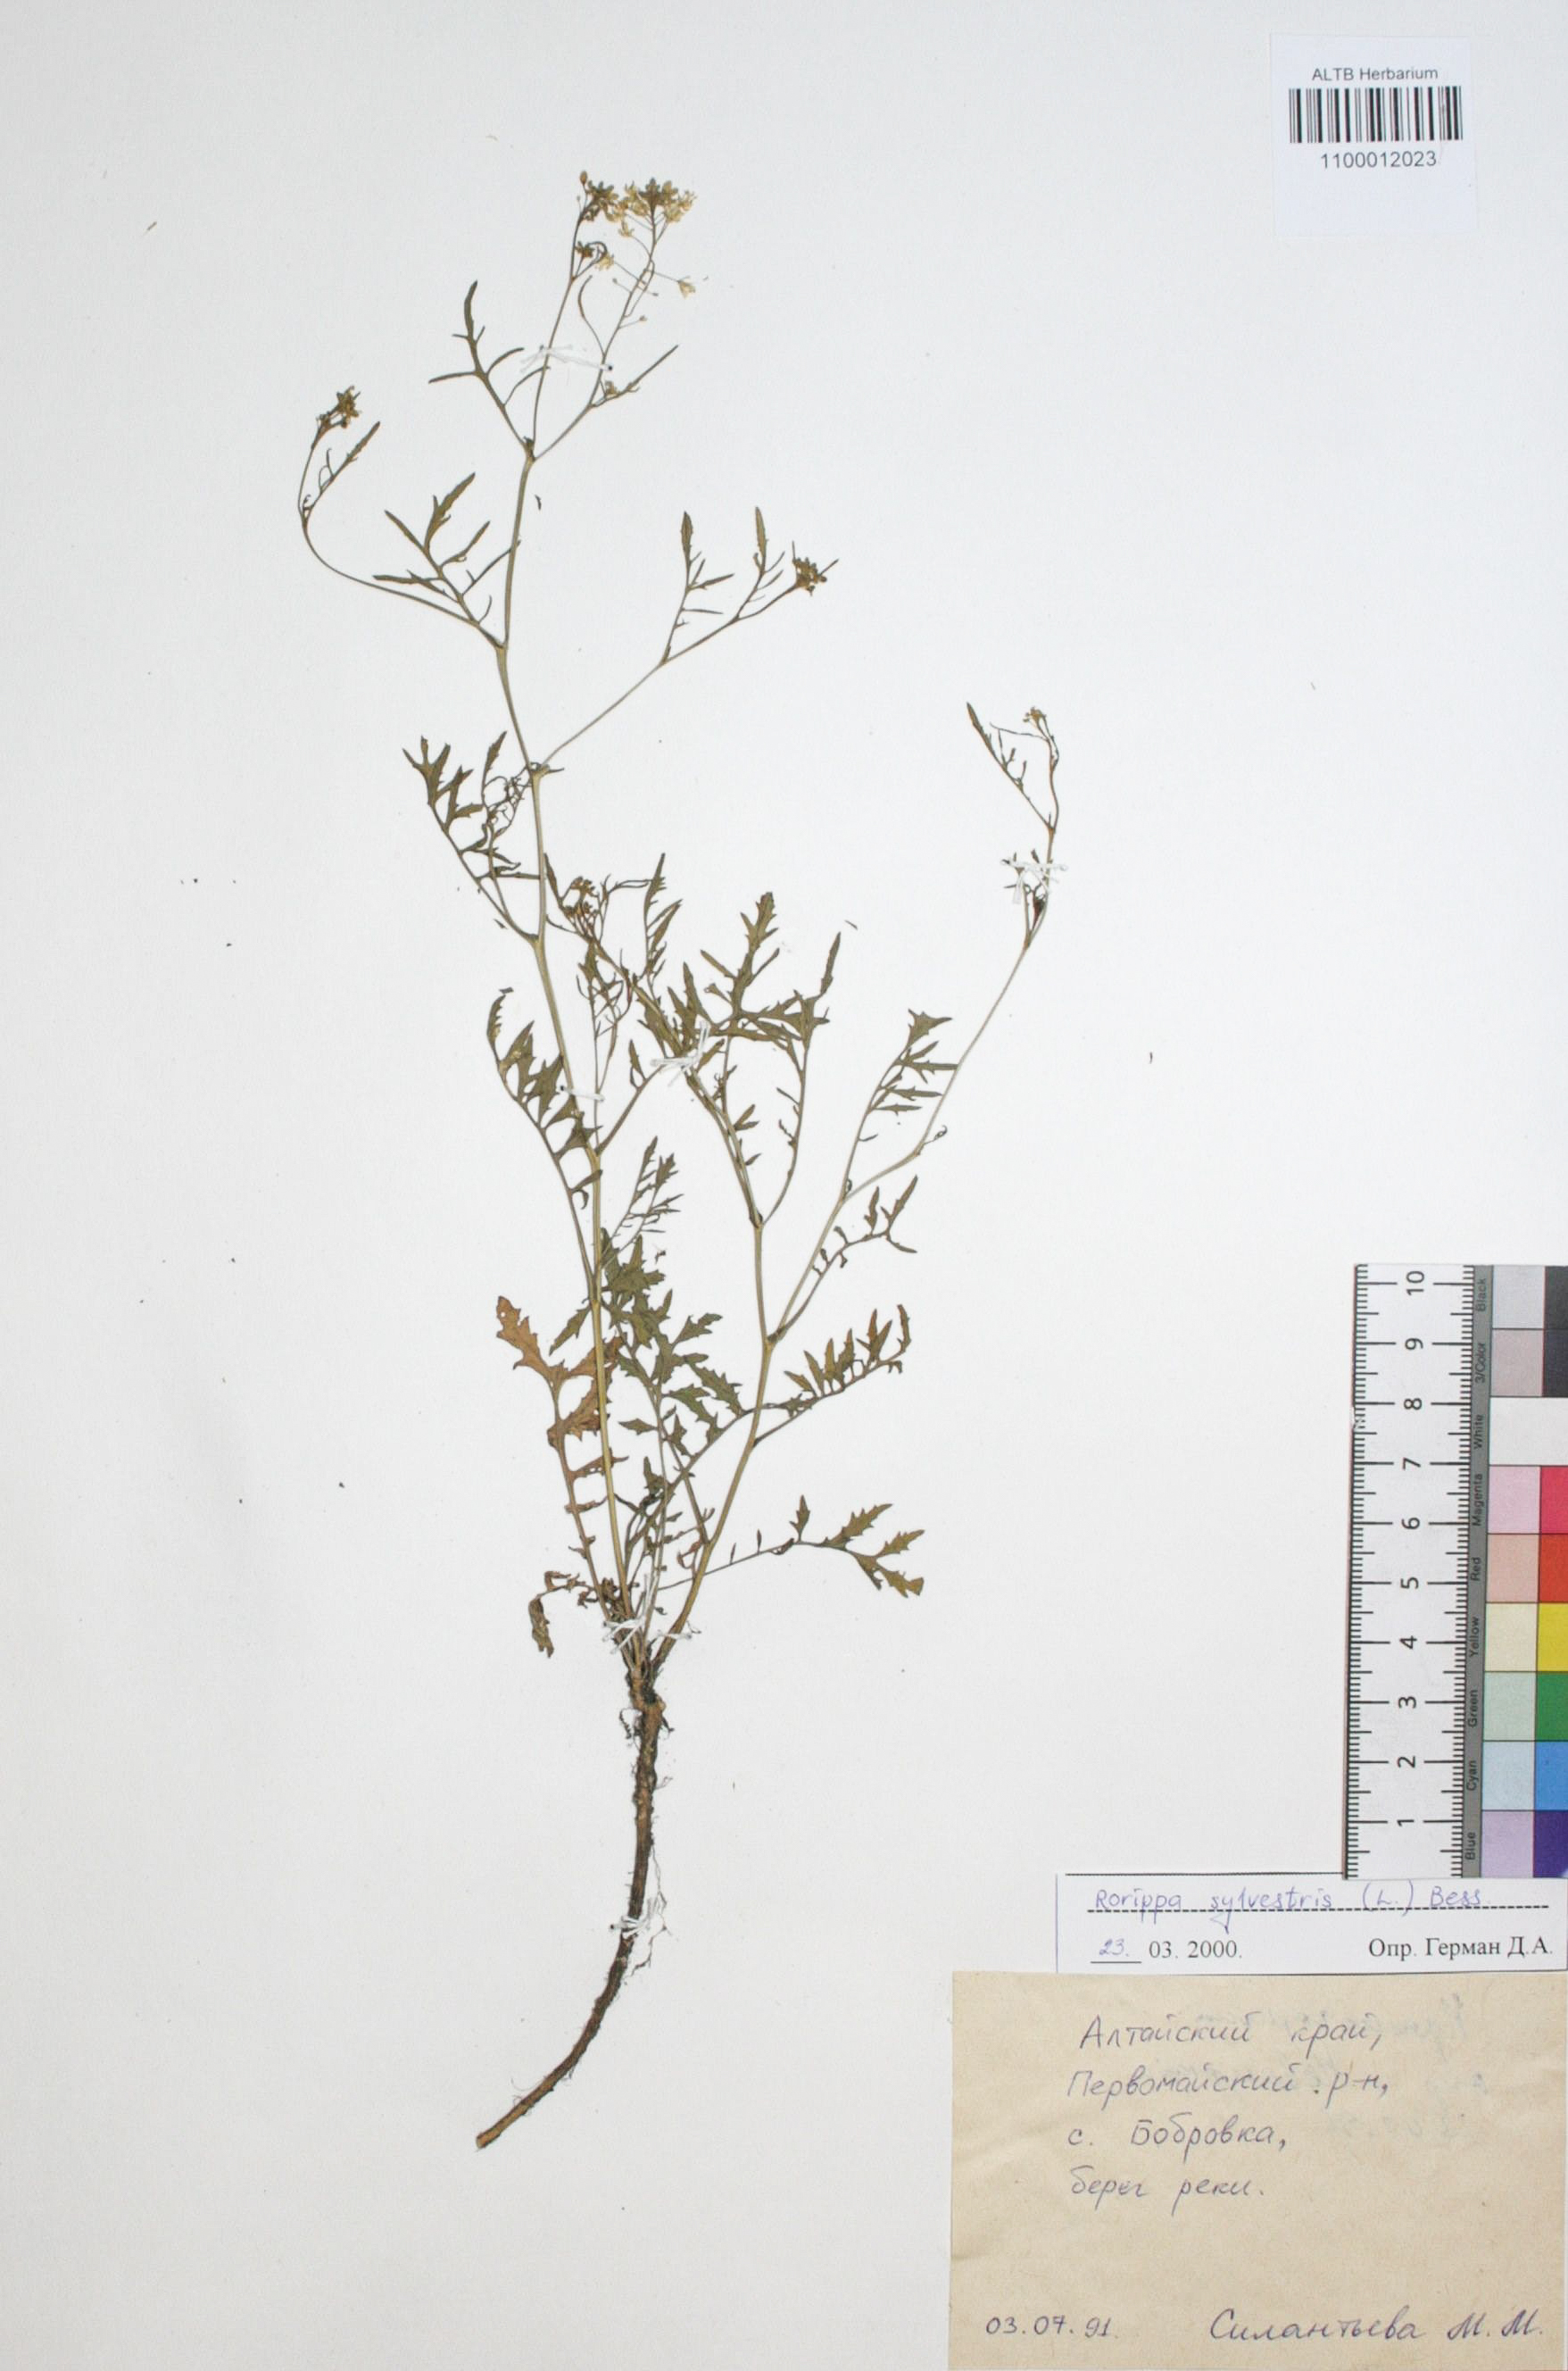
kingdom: Plantae
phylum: Tracheophyta
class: Magnoliopsida
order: Brassicales
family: Brassicaceae
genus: Rorippa
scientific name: Rorippa sylvestris
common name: Creeping yellowcress
